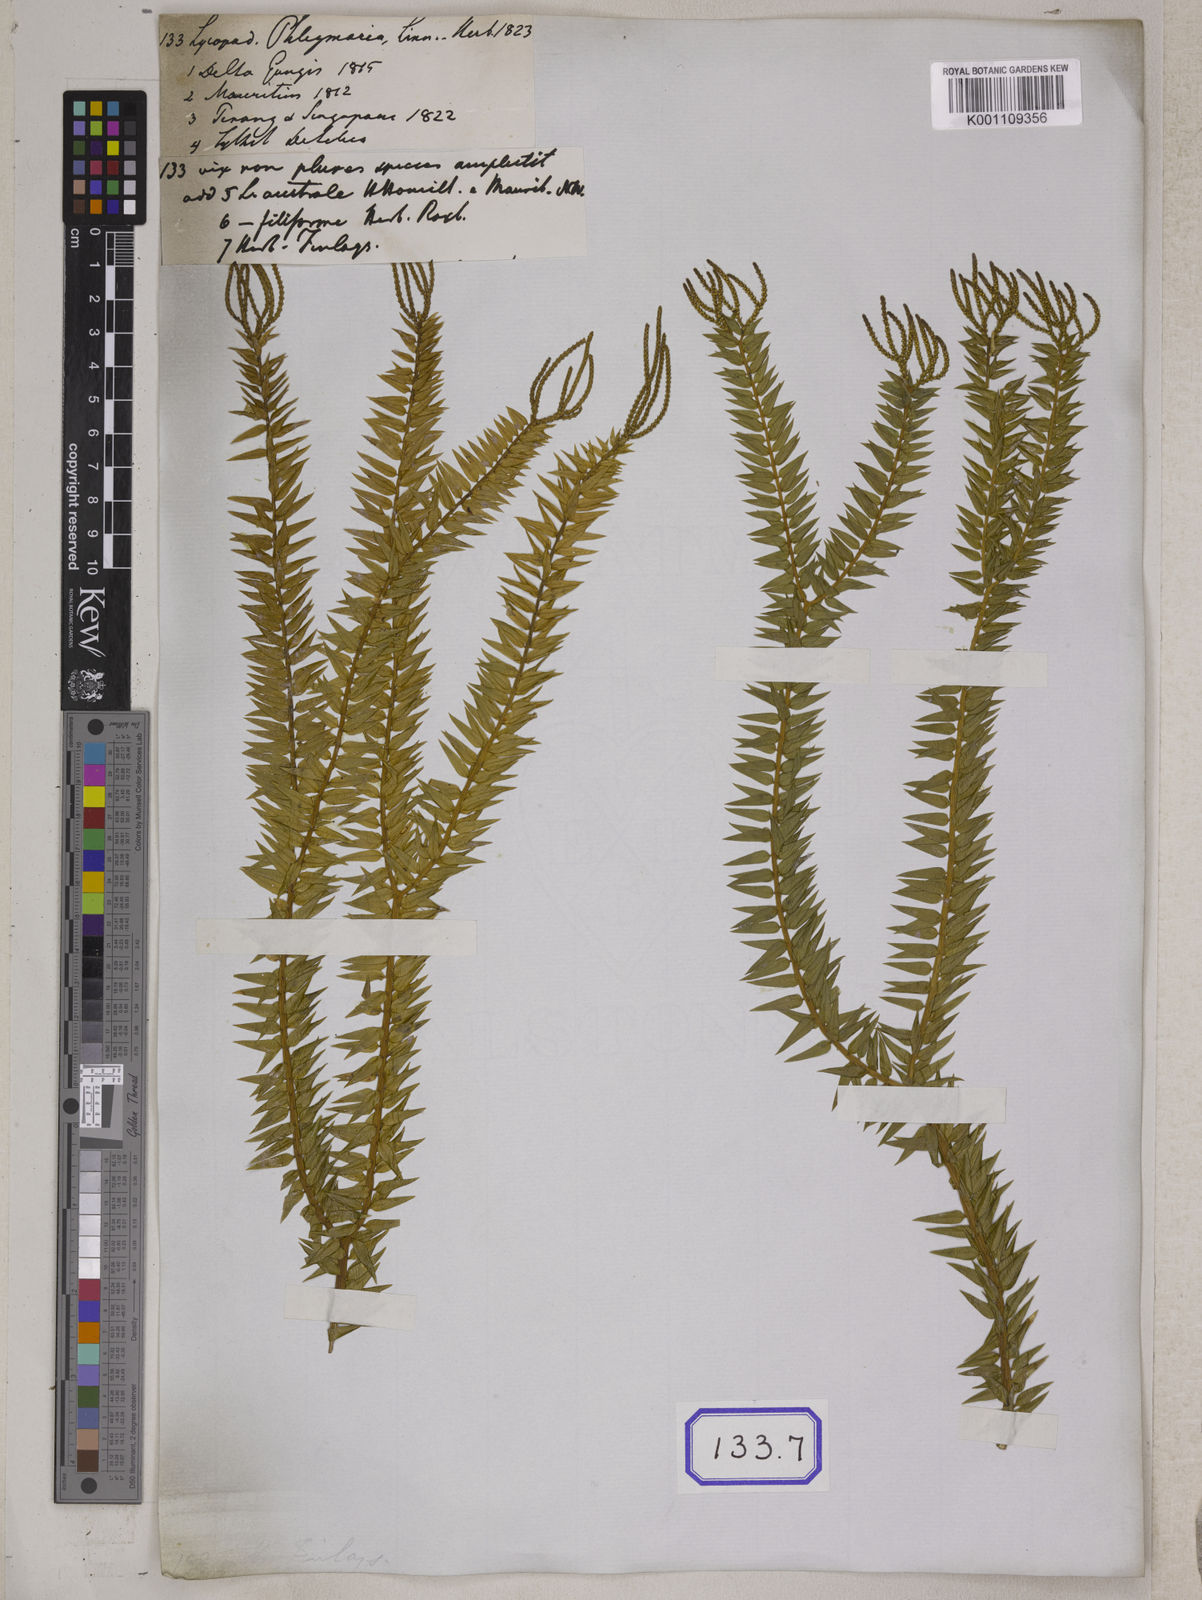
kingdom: Plantae
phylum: Tracheophyta
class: Lycopodiopsida
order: Lycopodiales
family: Lycopodiaceae
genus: Phlegmariurus
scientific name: Phlegmariurus phlegmaria
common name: Coarse tassel-fern
